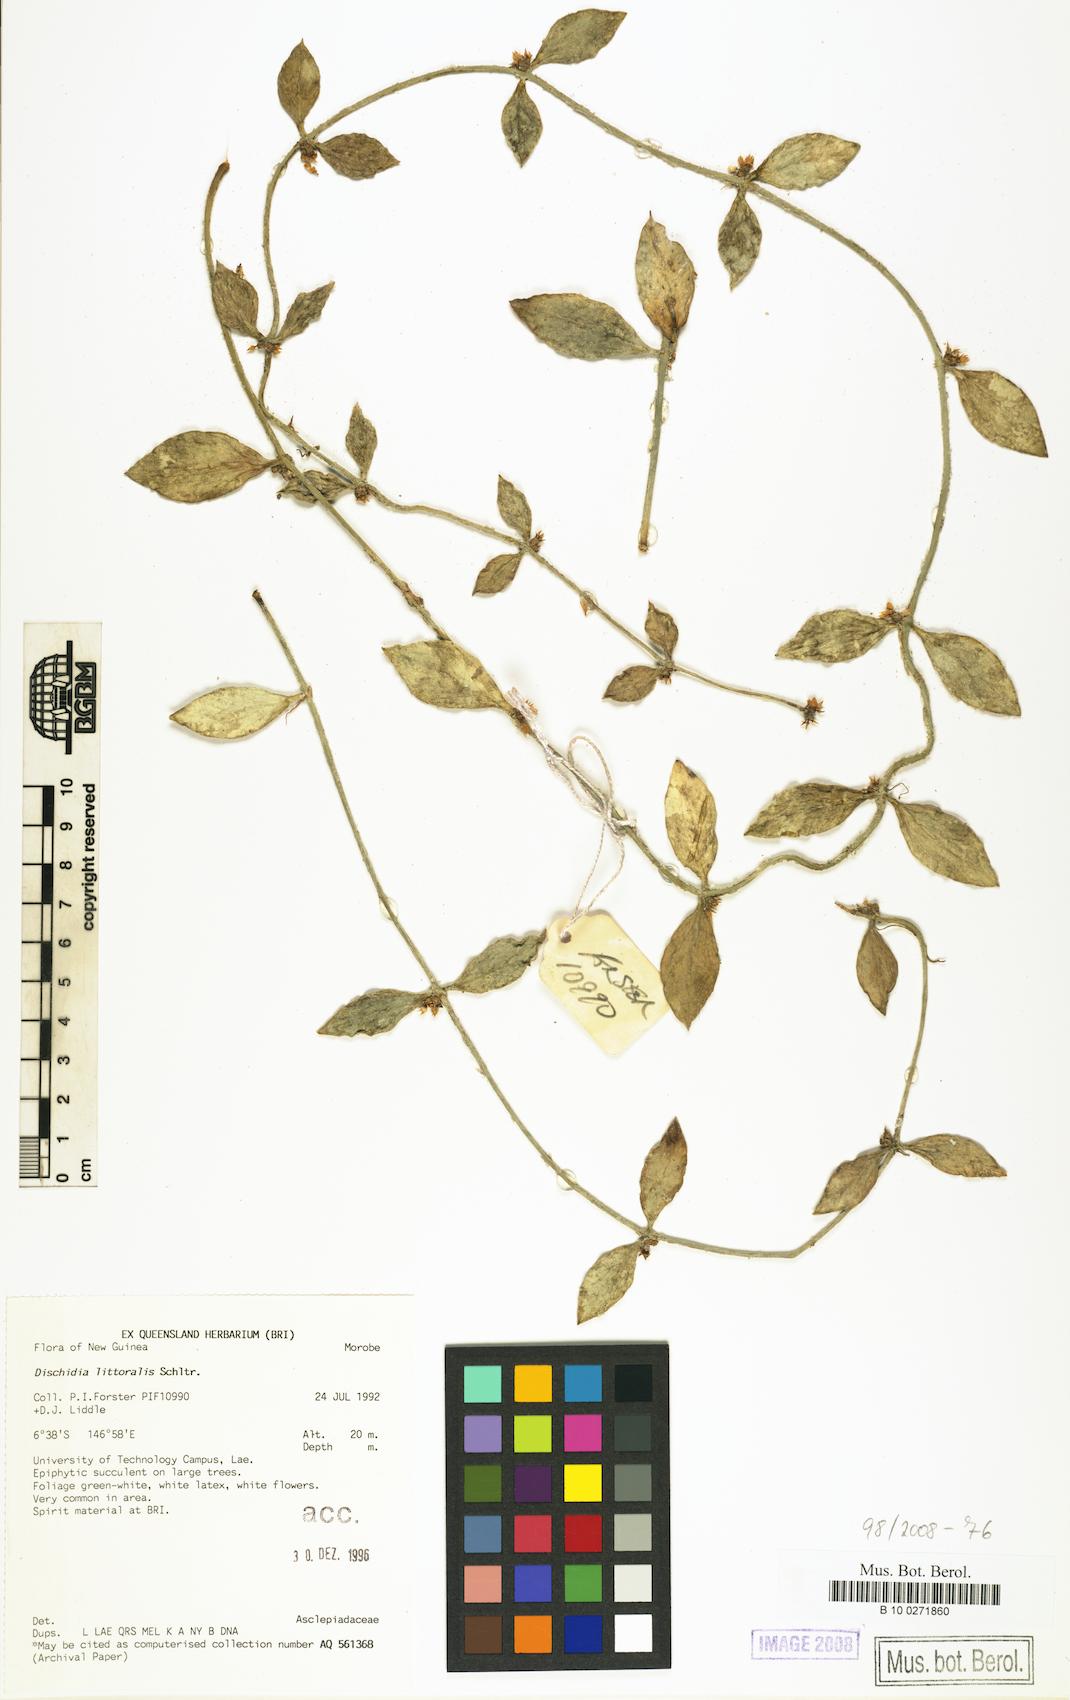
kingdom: Plantae
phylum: Tracheophyta
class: Magnoliopsida
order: Gentianales
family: Apocynaceae
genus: Dischidia
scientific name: Dischidia litoralis
